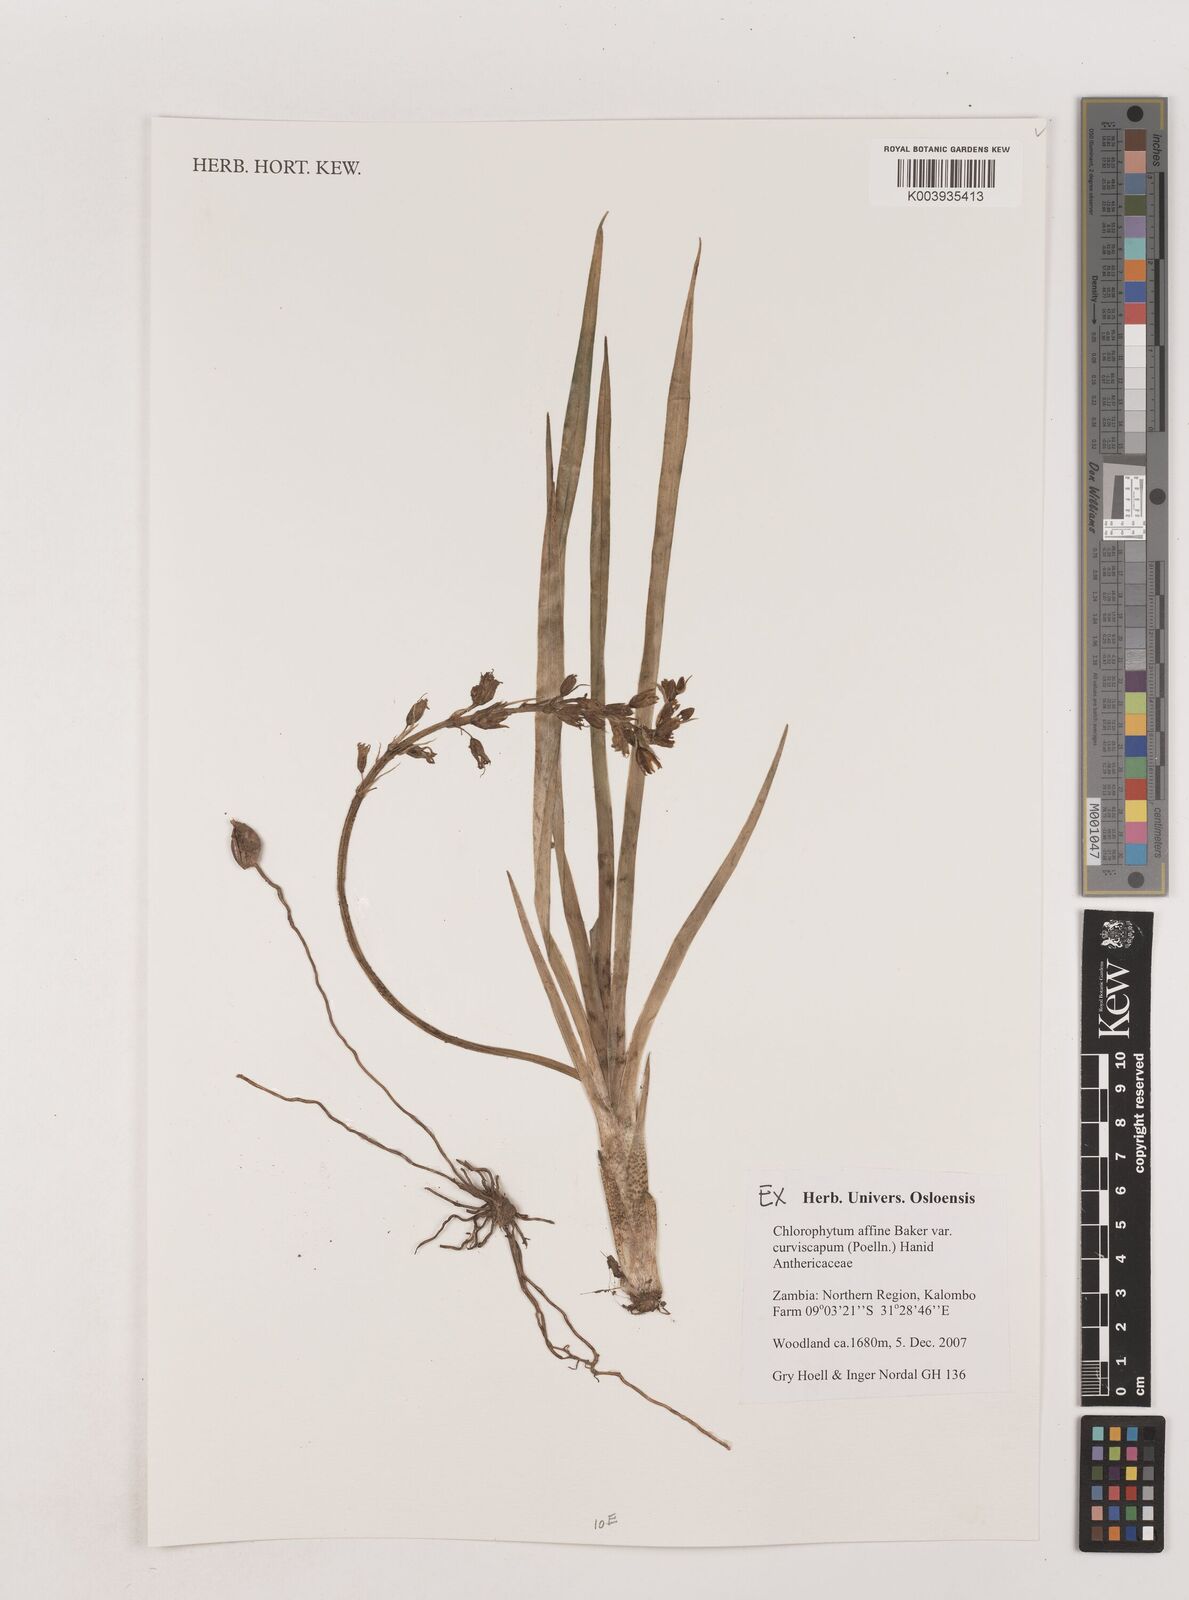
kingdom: Plantae
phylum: Tracheophyta
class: Liliopsida
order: Asparagales
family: Asparagaceae
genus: Chlorophytum
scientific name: Chlorophytum tordense
